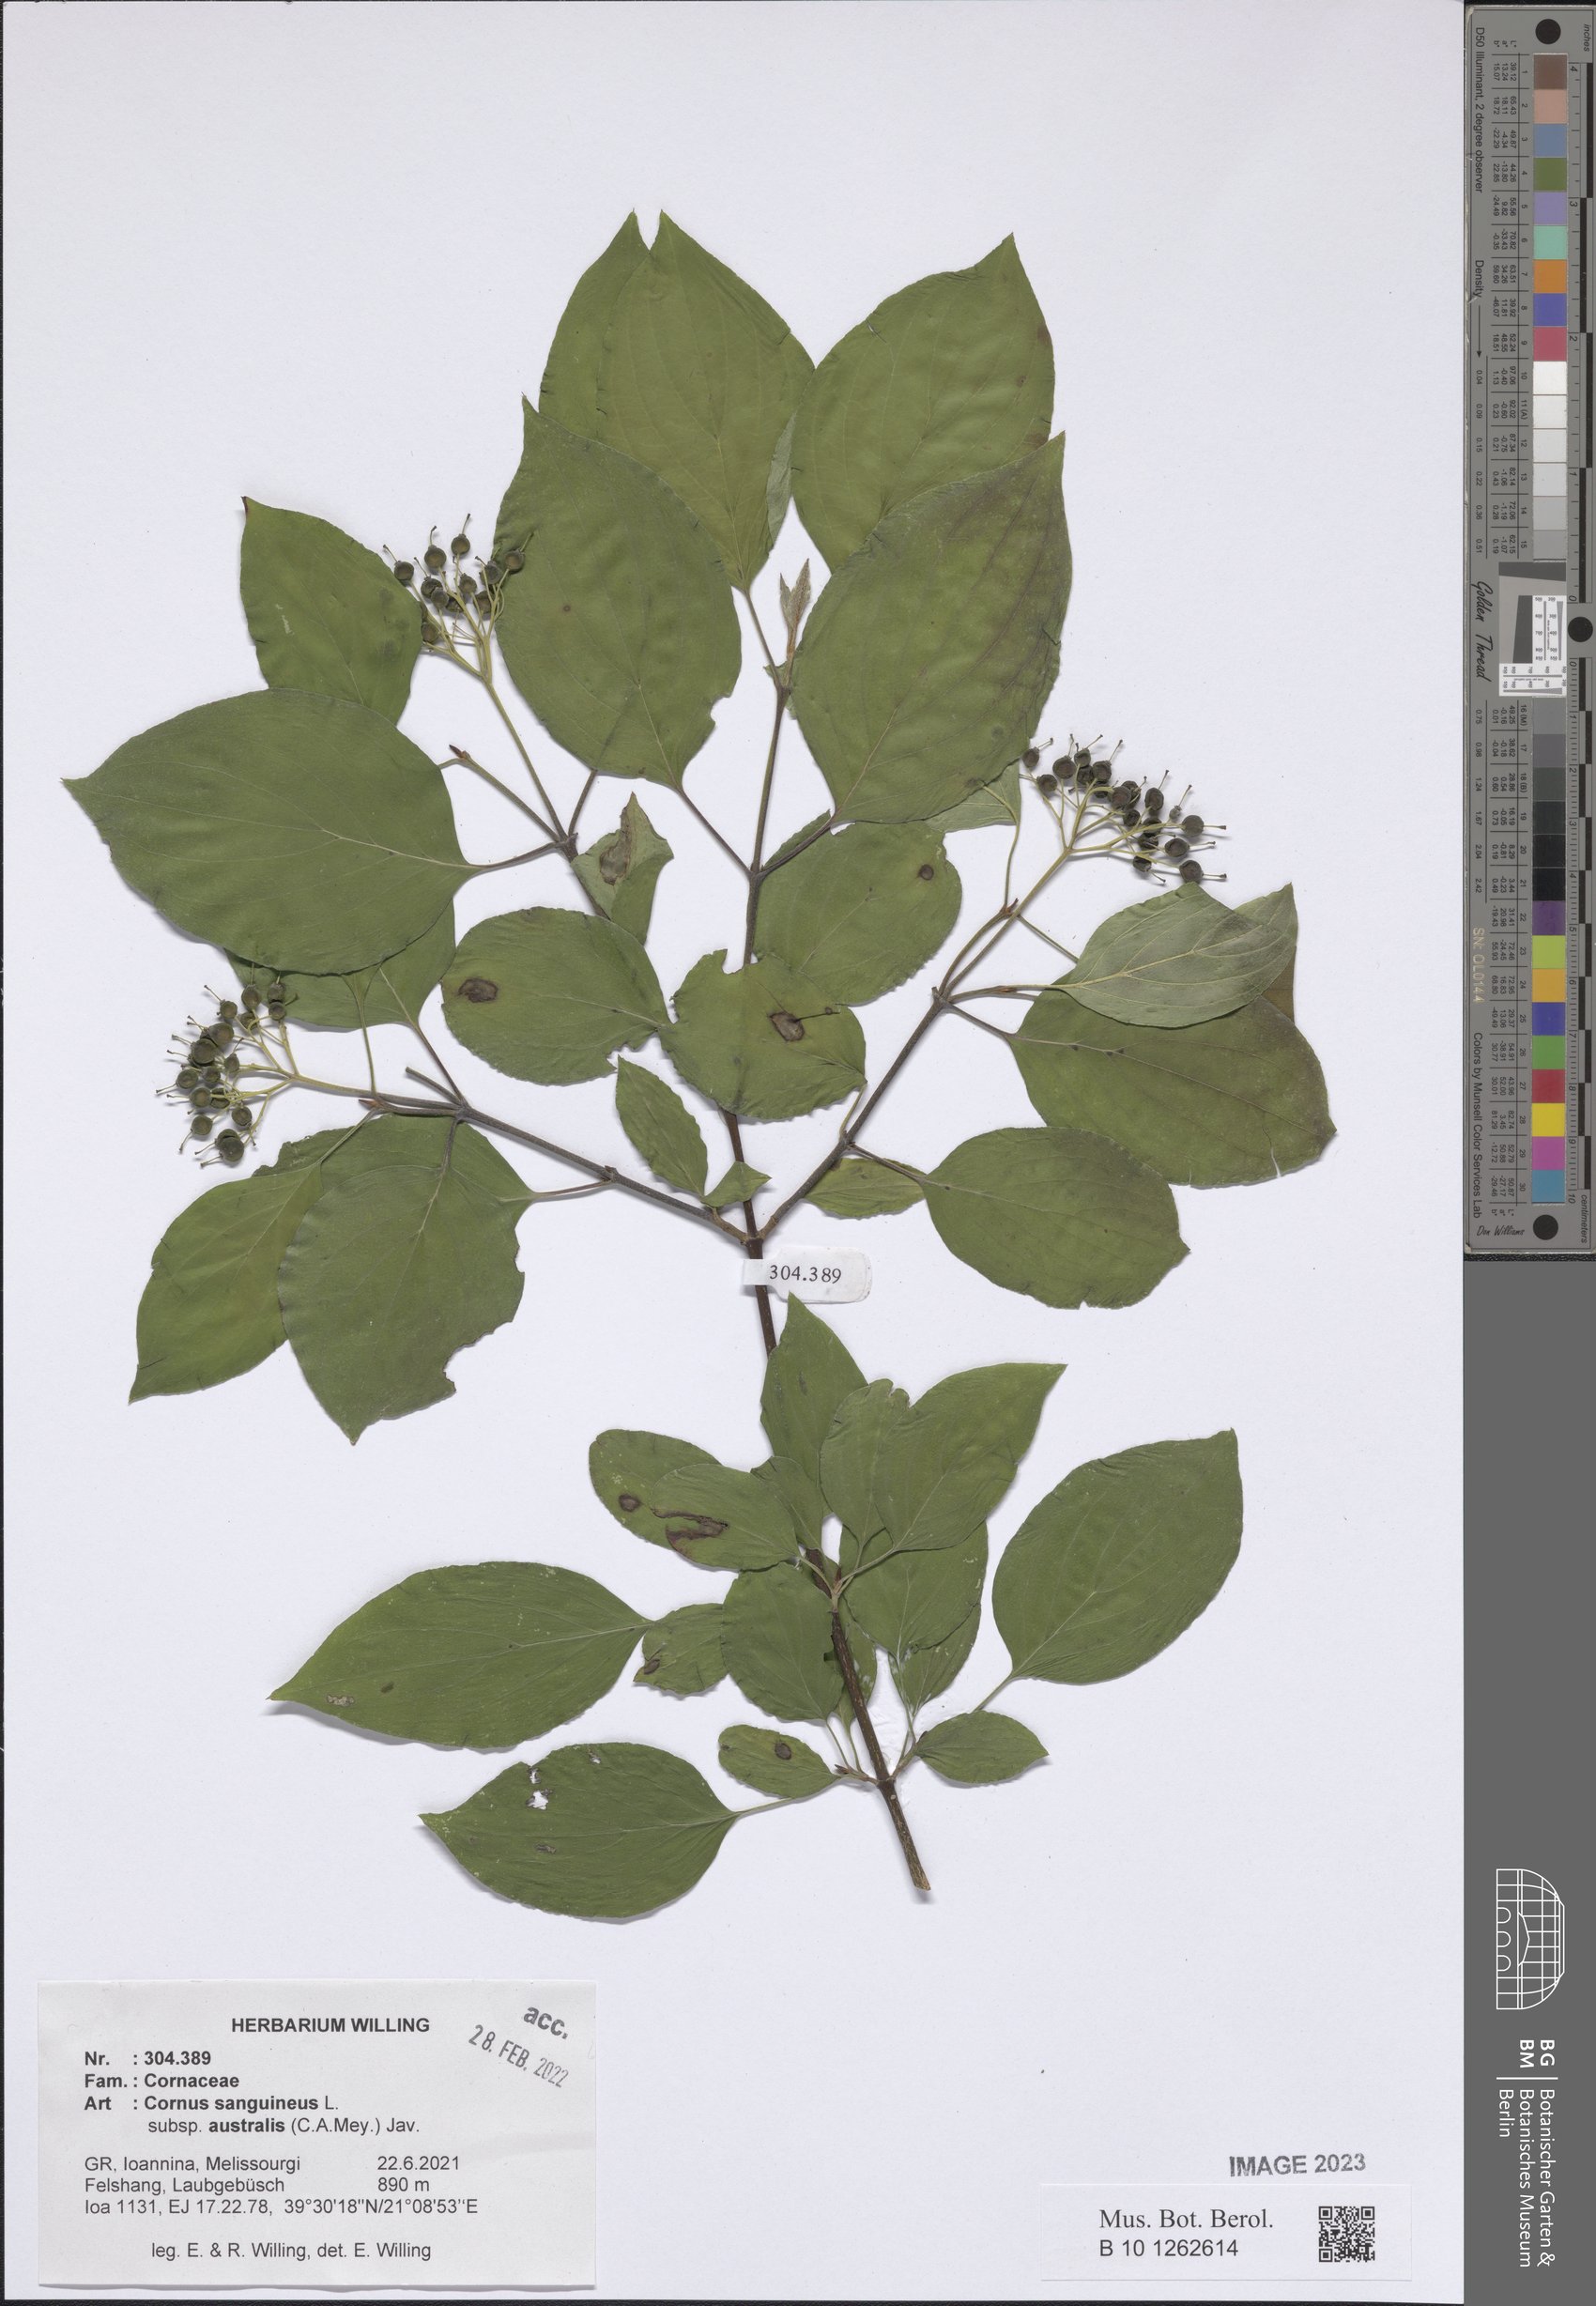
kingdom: Plantae
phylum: Tracheophyta
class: Magnoliopsida
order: Cornales
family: Cornaceae
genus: Cornus
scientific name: Cornus sanguinea
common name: Dogwood
